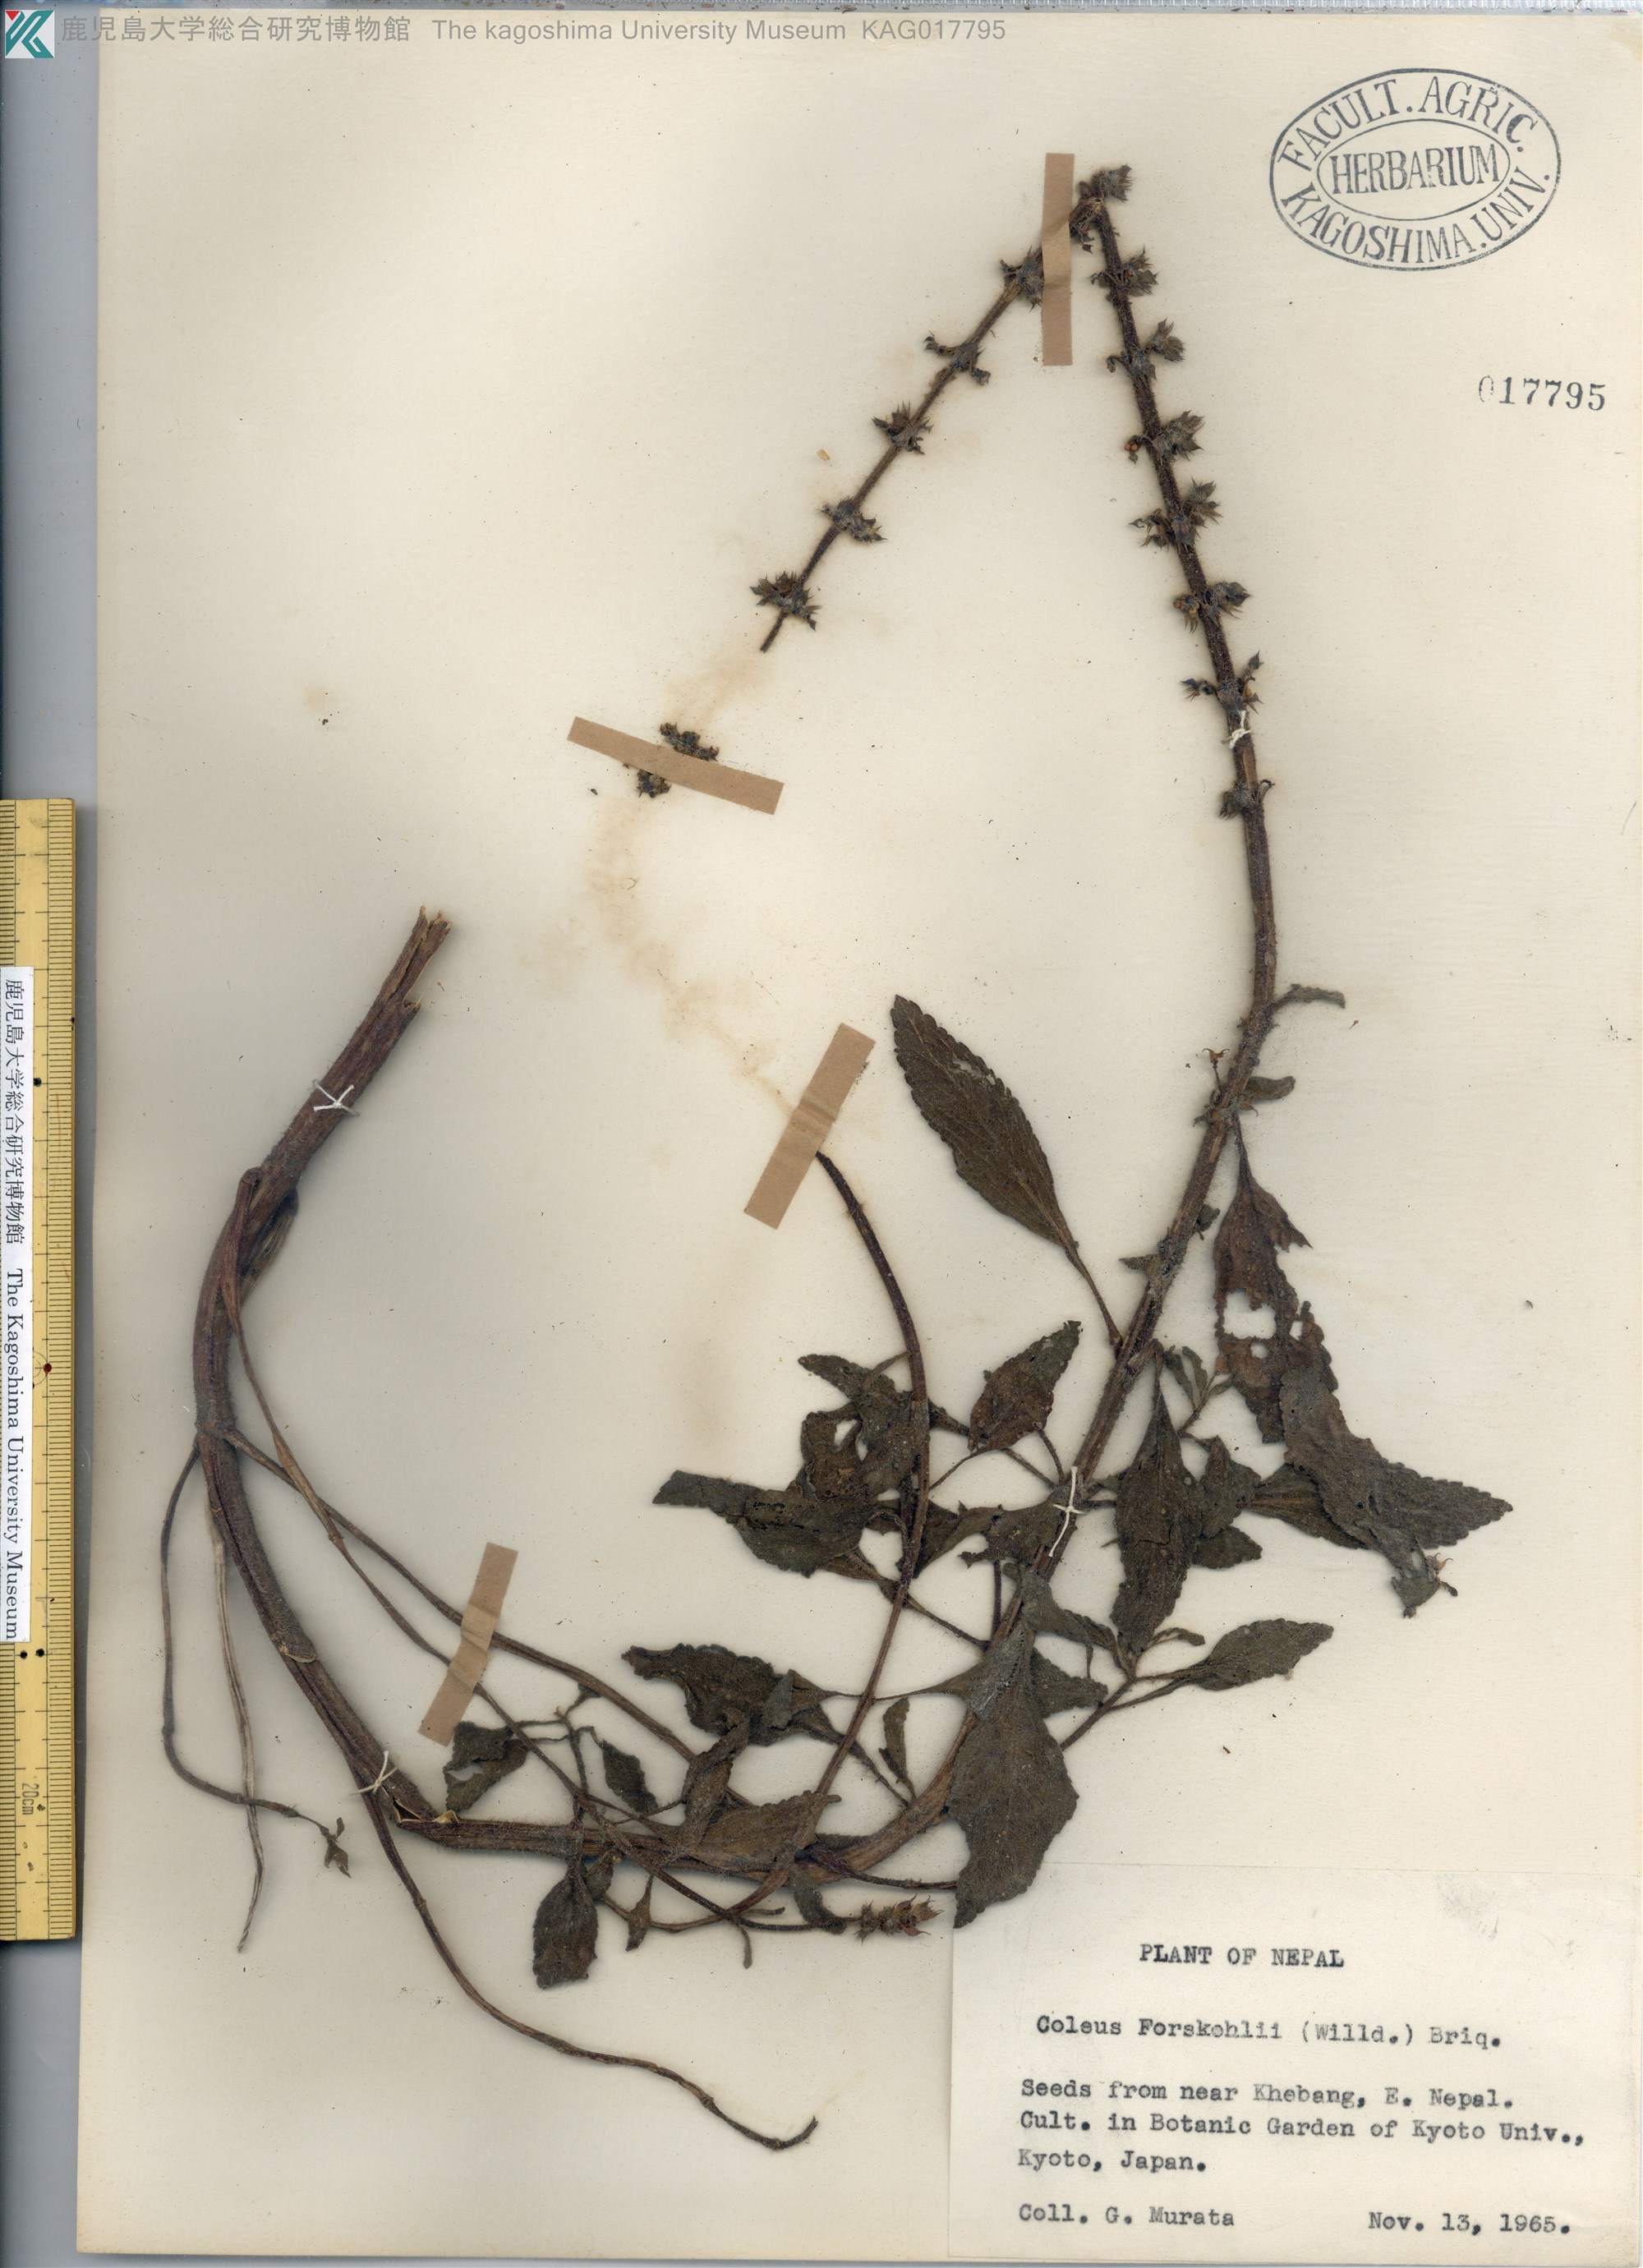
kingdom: Plantae
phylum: Tracheophyta
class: Magnoliopsida
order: Lamiales
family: Lamiaceae
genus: Coleus
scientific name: Coleus hadiensis
